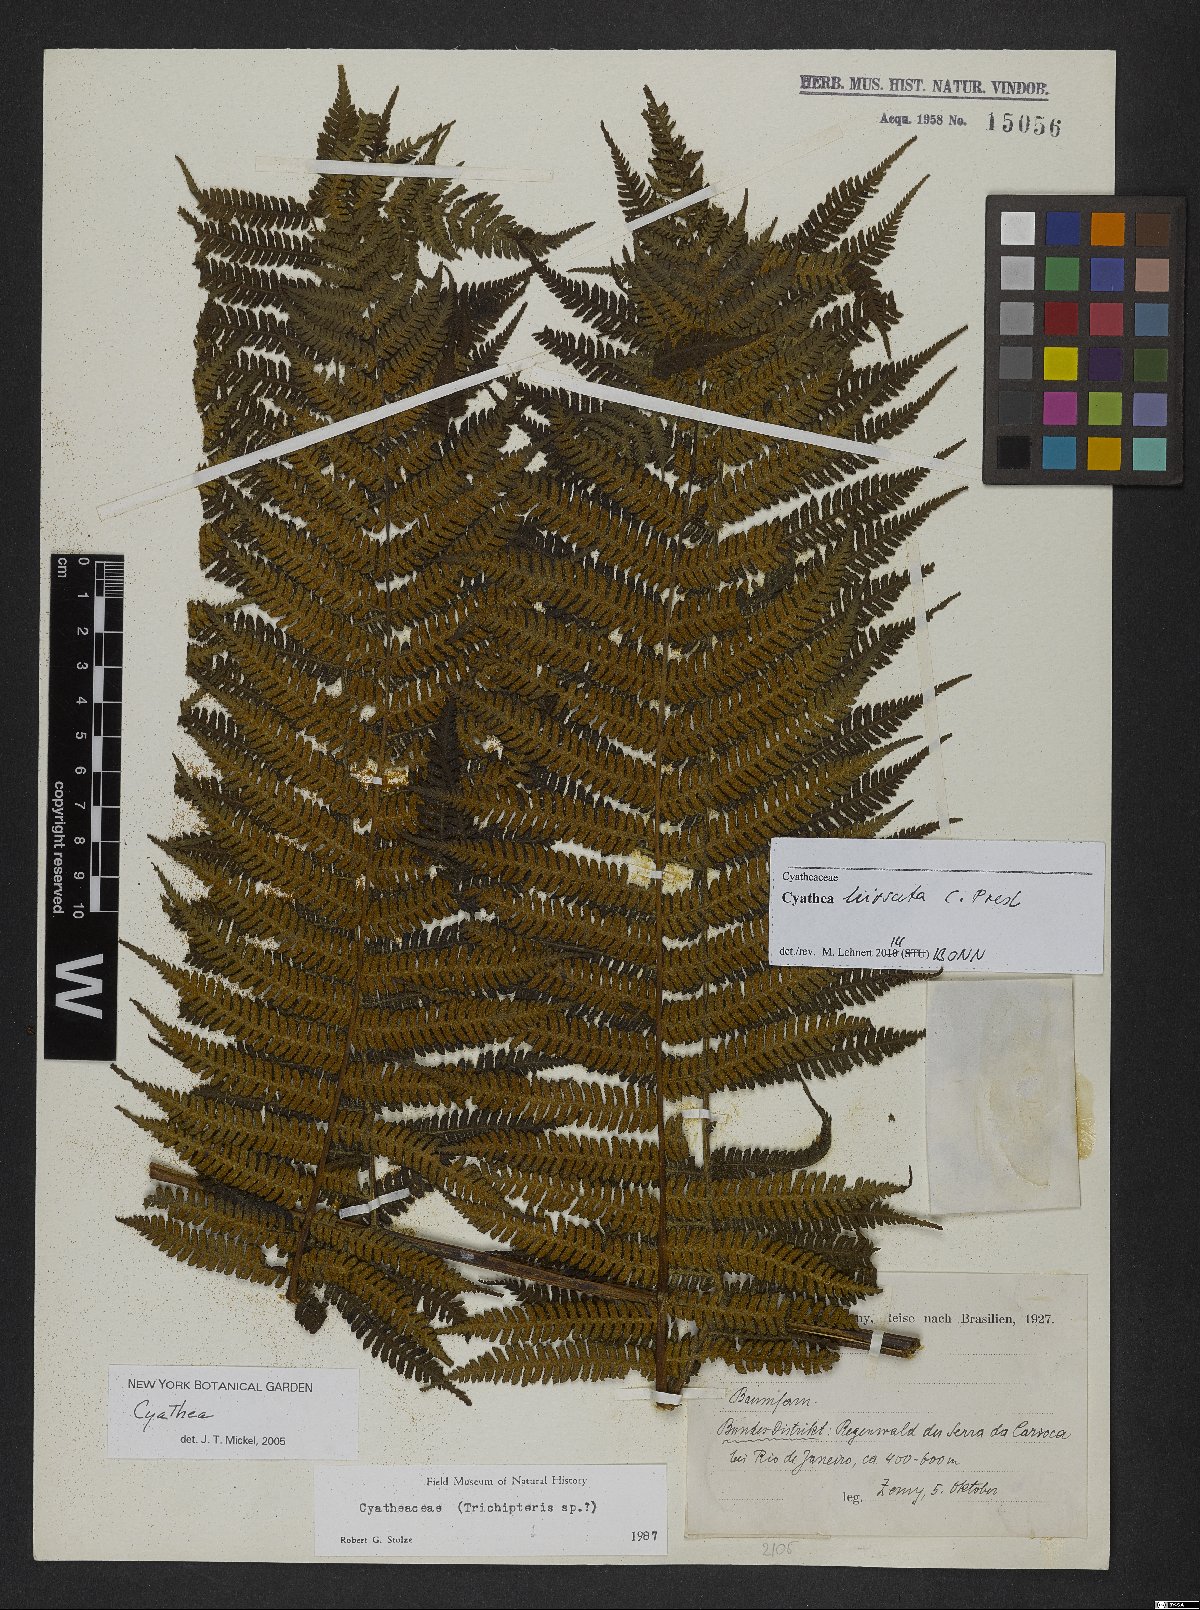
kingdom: Plantae
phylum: Tracheophyta
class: Polypodiopsida
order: Cyatheales
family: Cyatheaceae
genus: Cyathea
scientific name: Cyathea hirsuta
